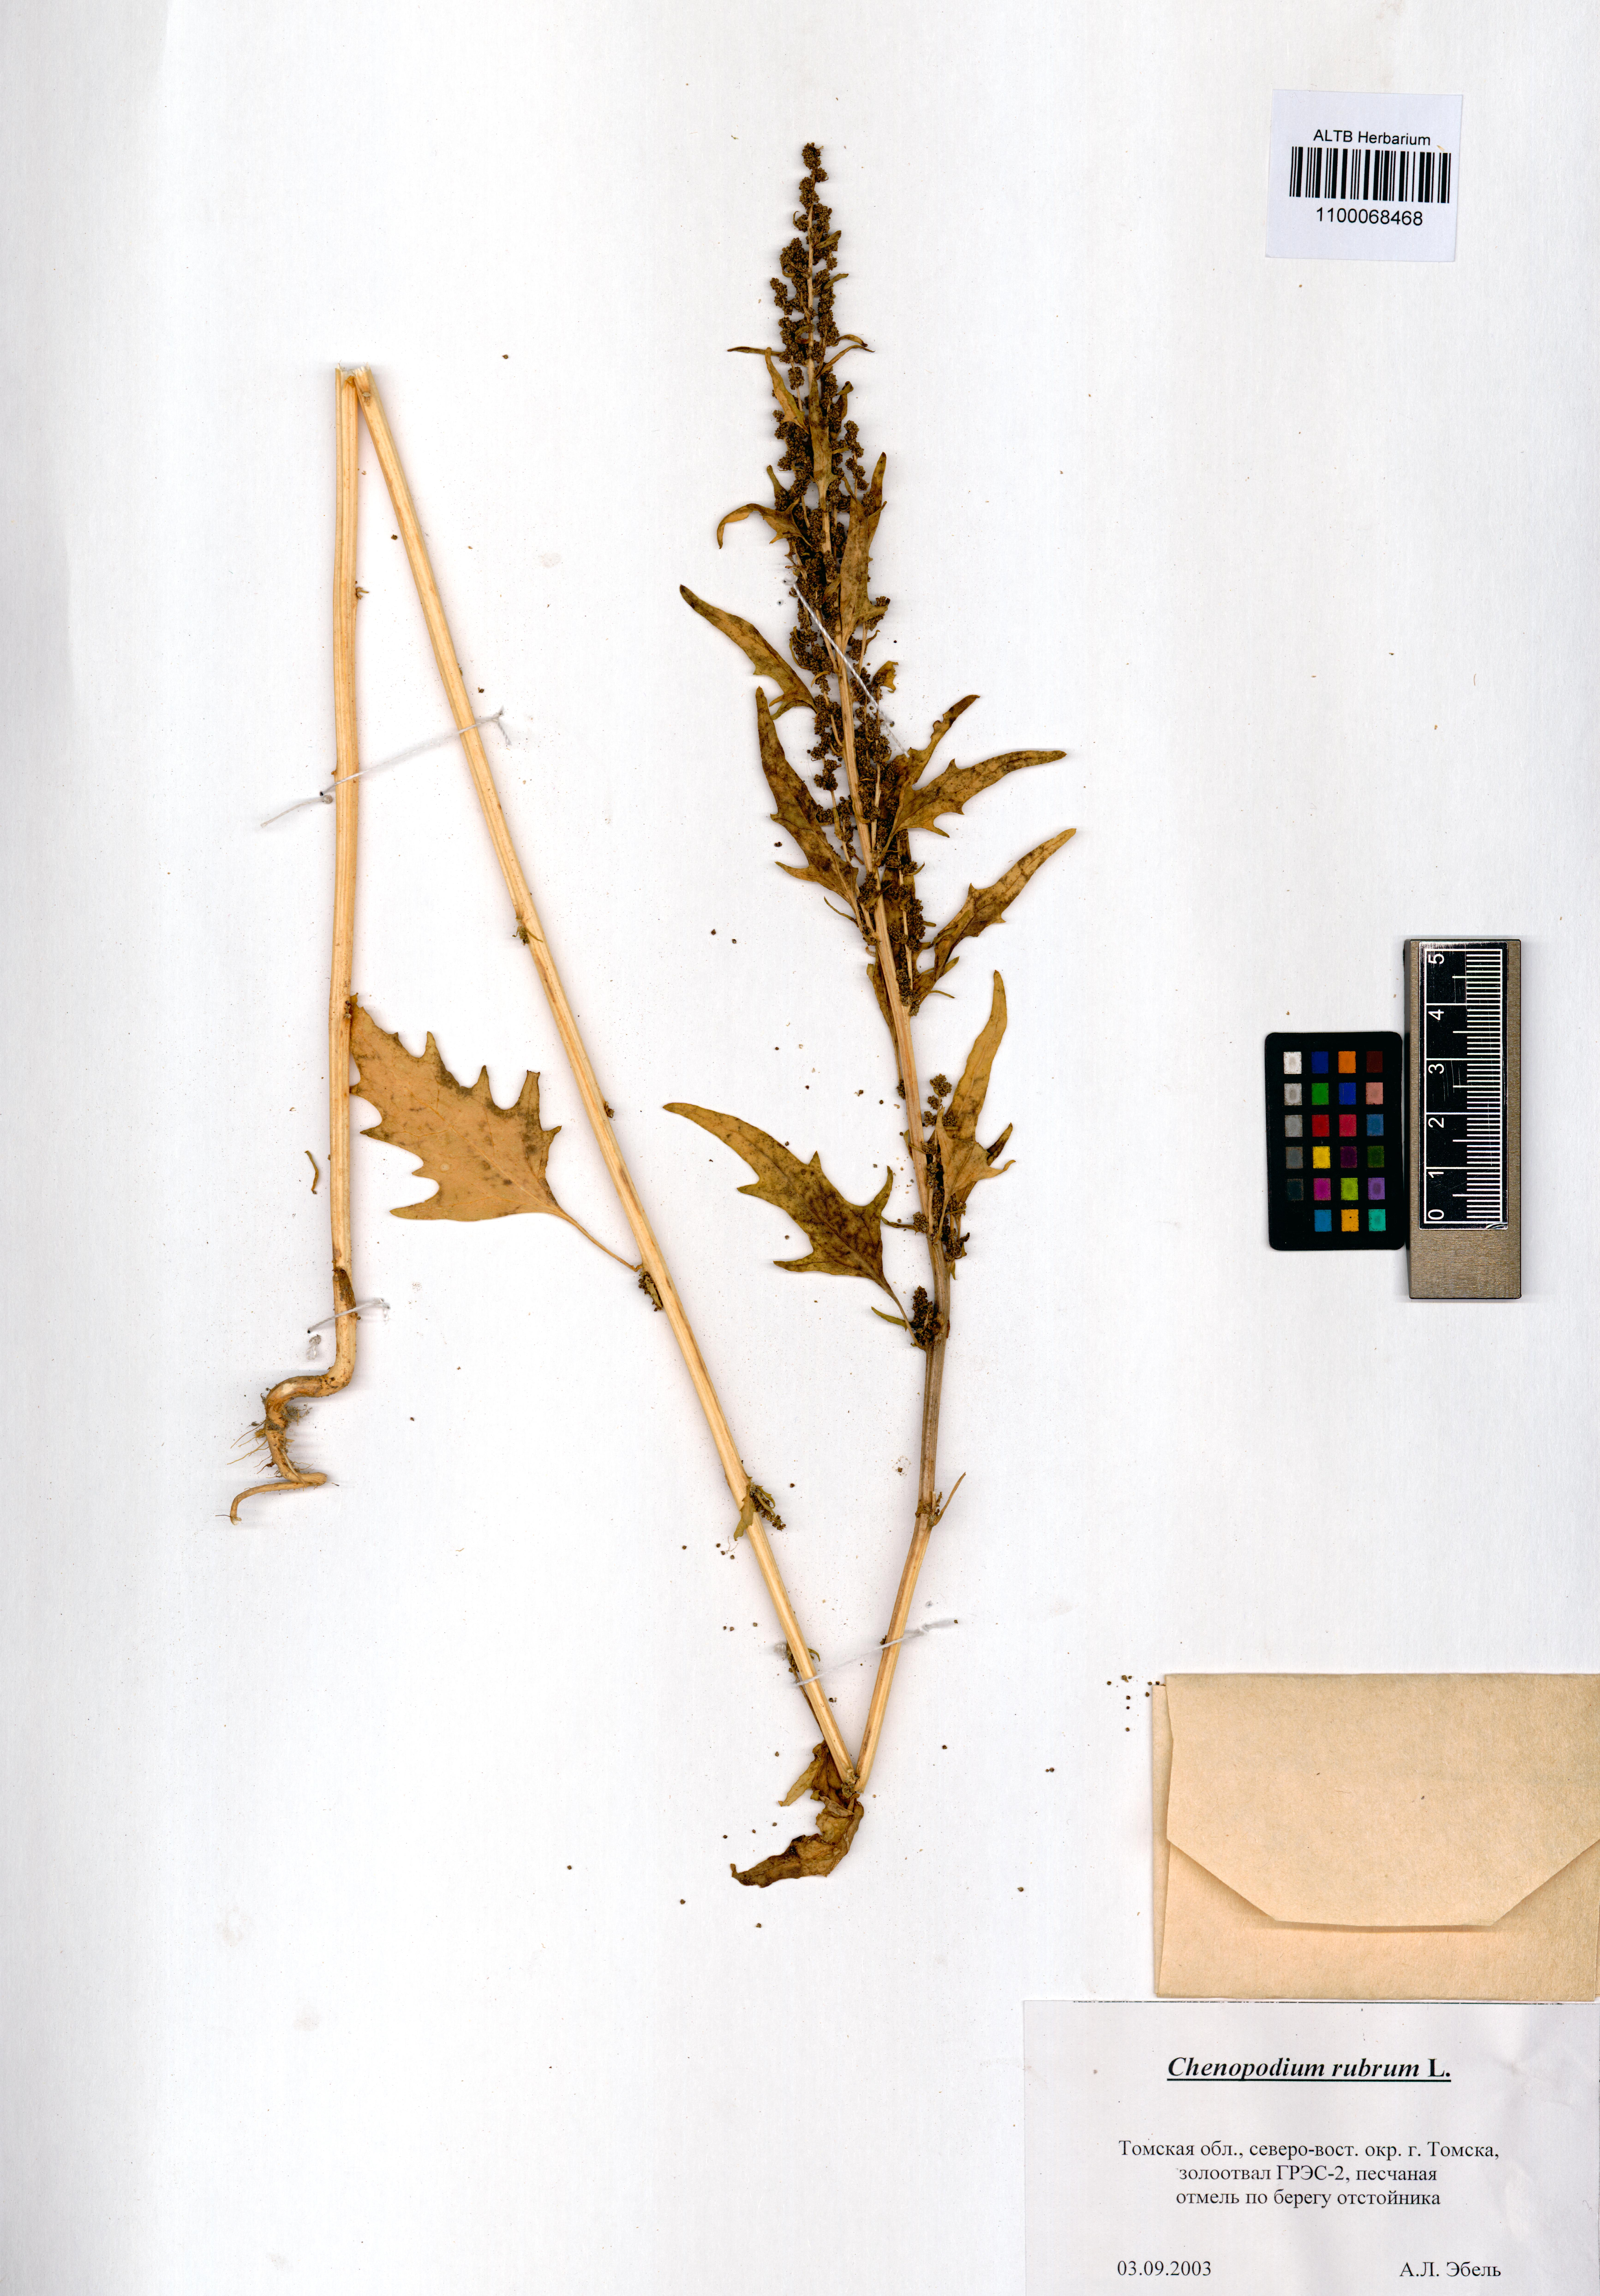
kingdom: Plantae
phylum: Tracheophyta
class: Magnoliopsida
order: Caryophyllales
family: Amaranthaceae
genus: Oxybasis
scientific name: Oxybasis rubra
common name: Red goosefoot
